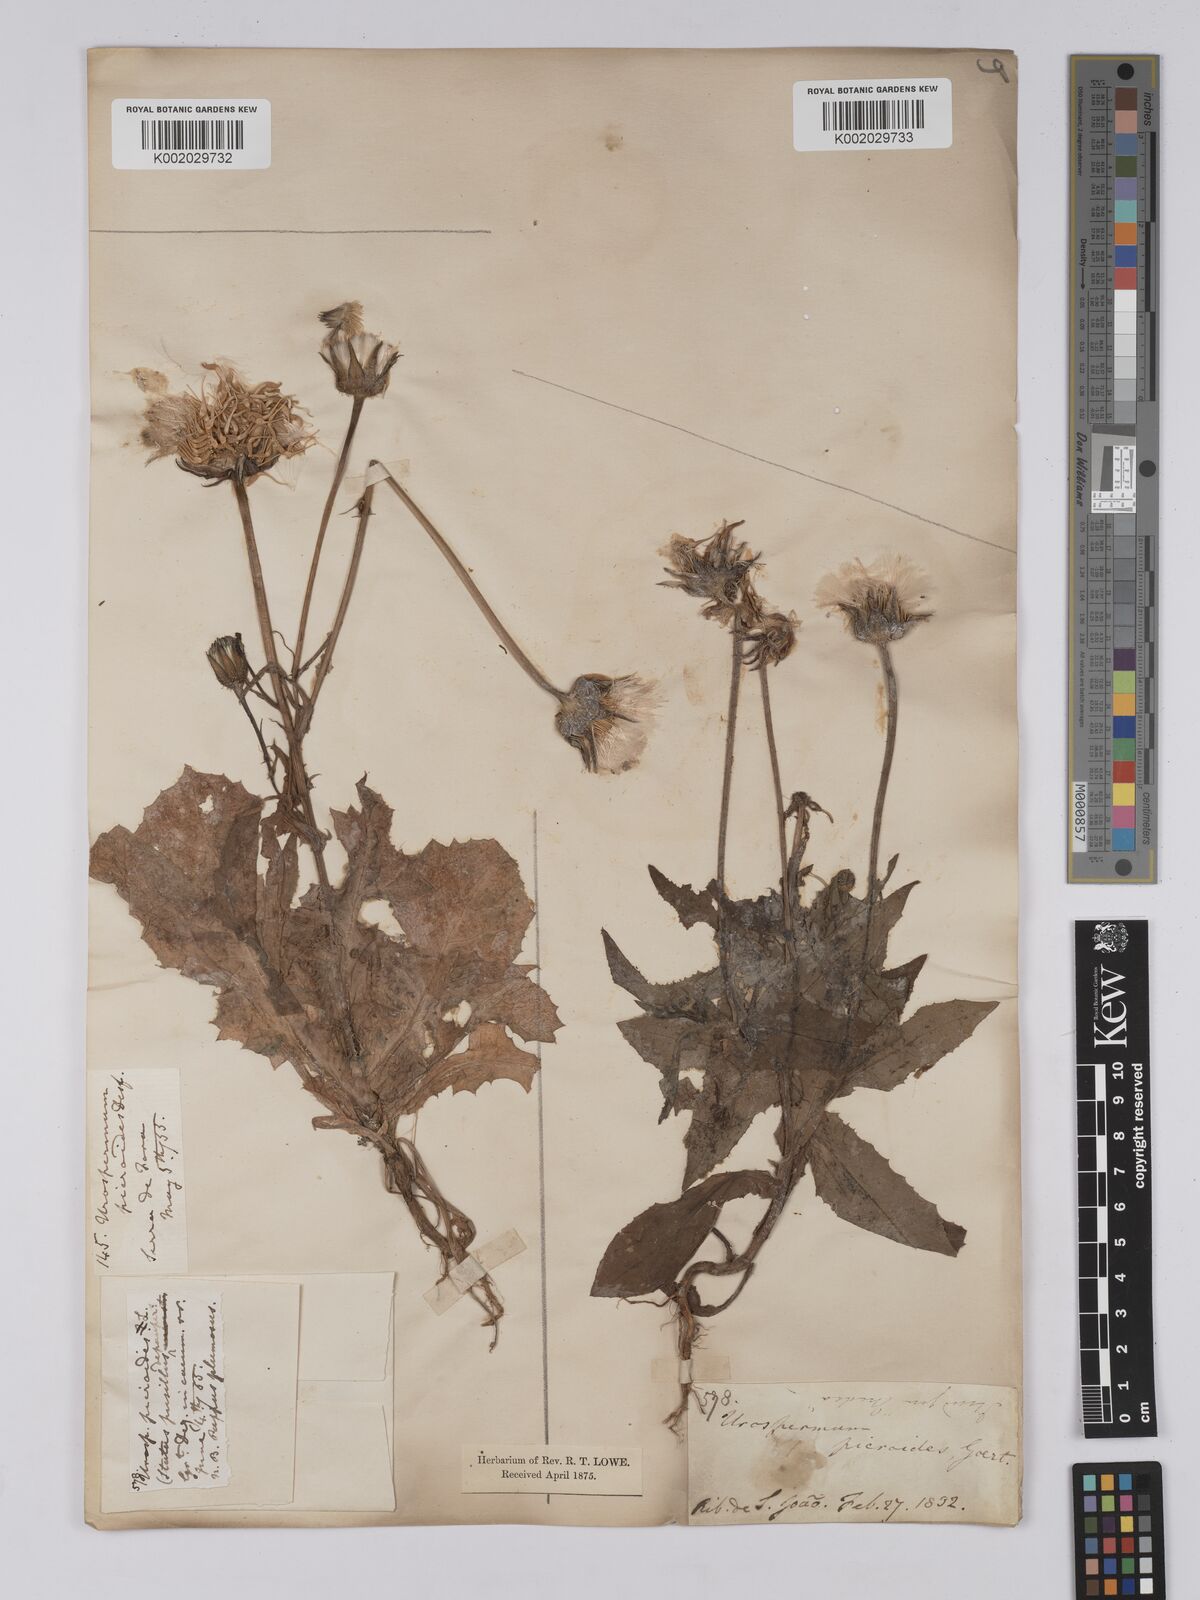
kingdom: Plantae
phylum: Tracheophyta
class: Magnoliopsida
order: Asterales
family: Asteraceae
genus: Urospermum
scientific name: Urospermum picroides
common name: False hawkbit
